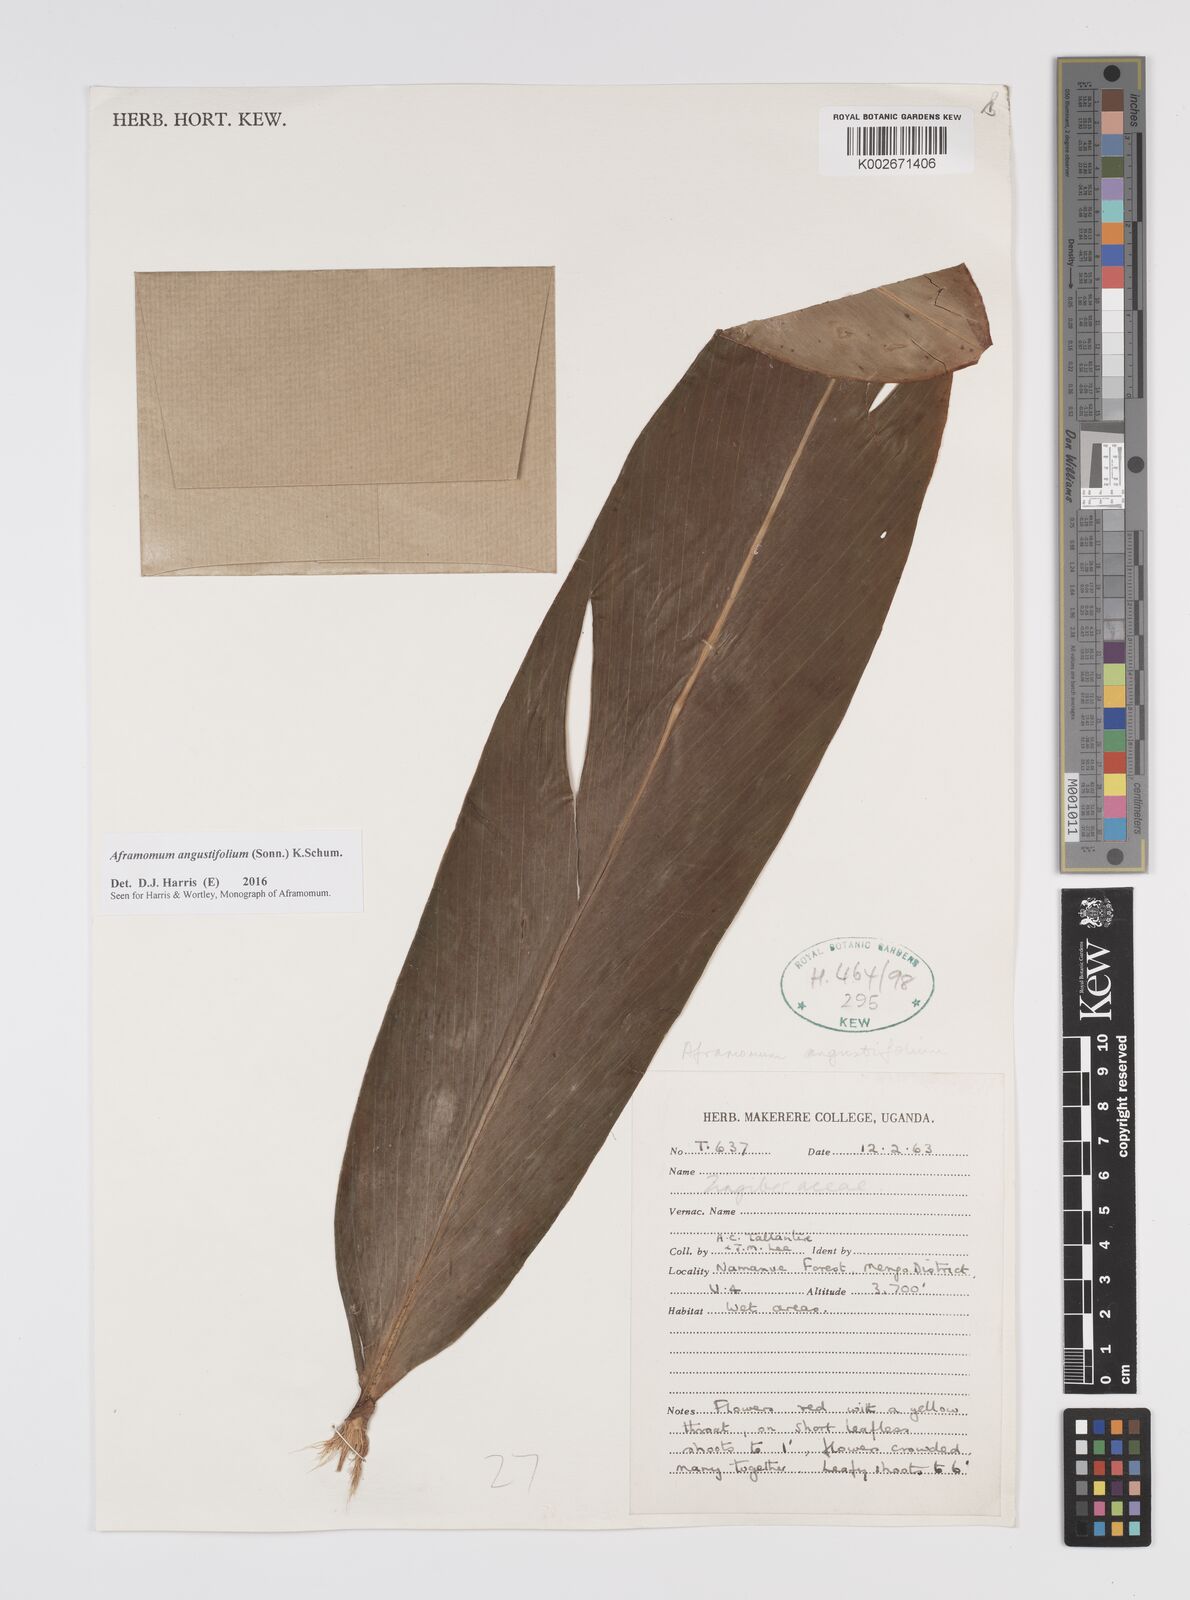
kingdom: Plantae
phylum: Tracheophyta
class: Liliopsida
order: Zingiberales
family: Zingiberaceae
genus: Aframomum
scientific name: Aframomum angustifolium
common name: Guinea grains
